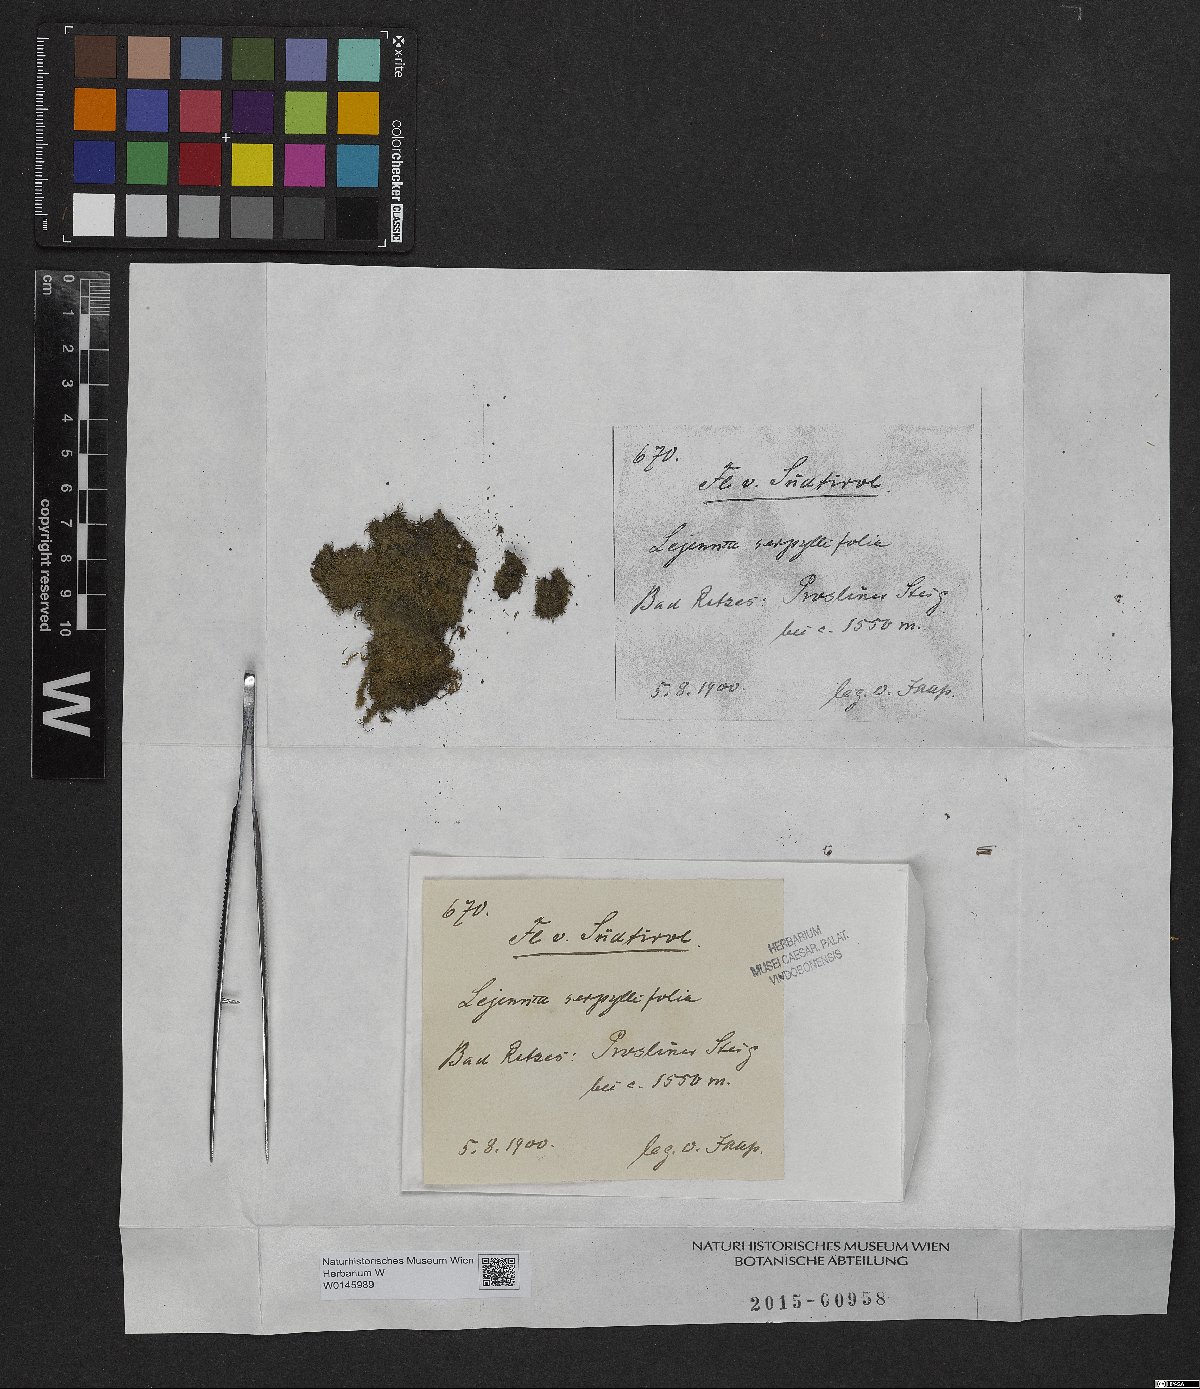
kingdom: Plantae
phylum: Marchantiophyta
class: Jungermanniopsida
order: Porellales
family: Lejeuneaceae
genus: Lejeunea
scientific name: Lejeunea patens
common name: Pearl pouncewort
